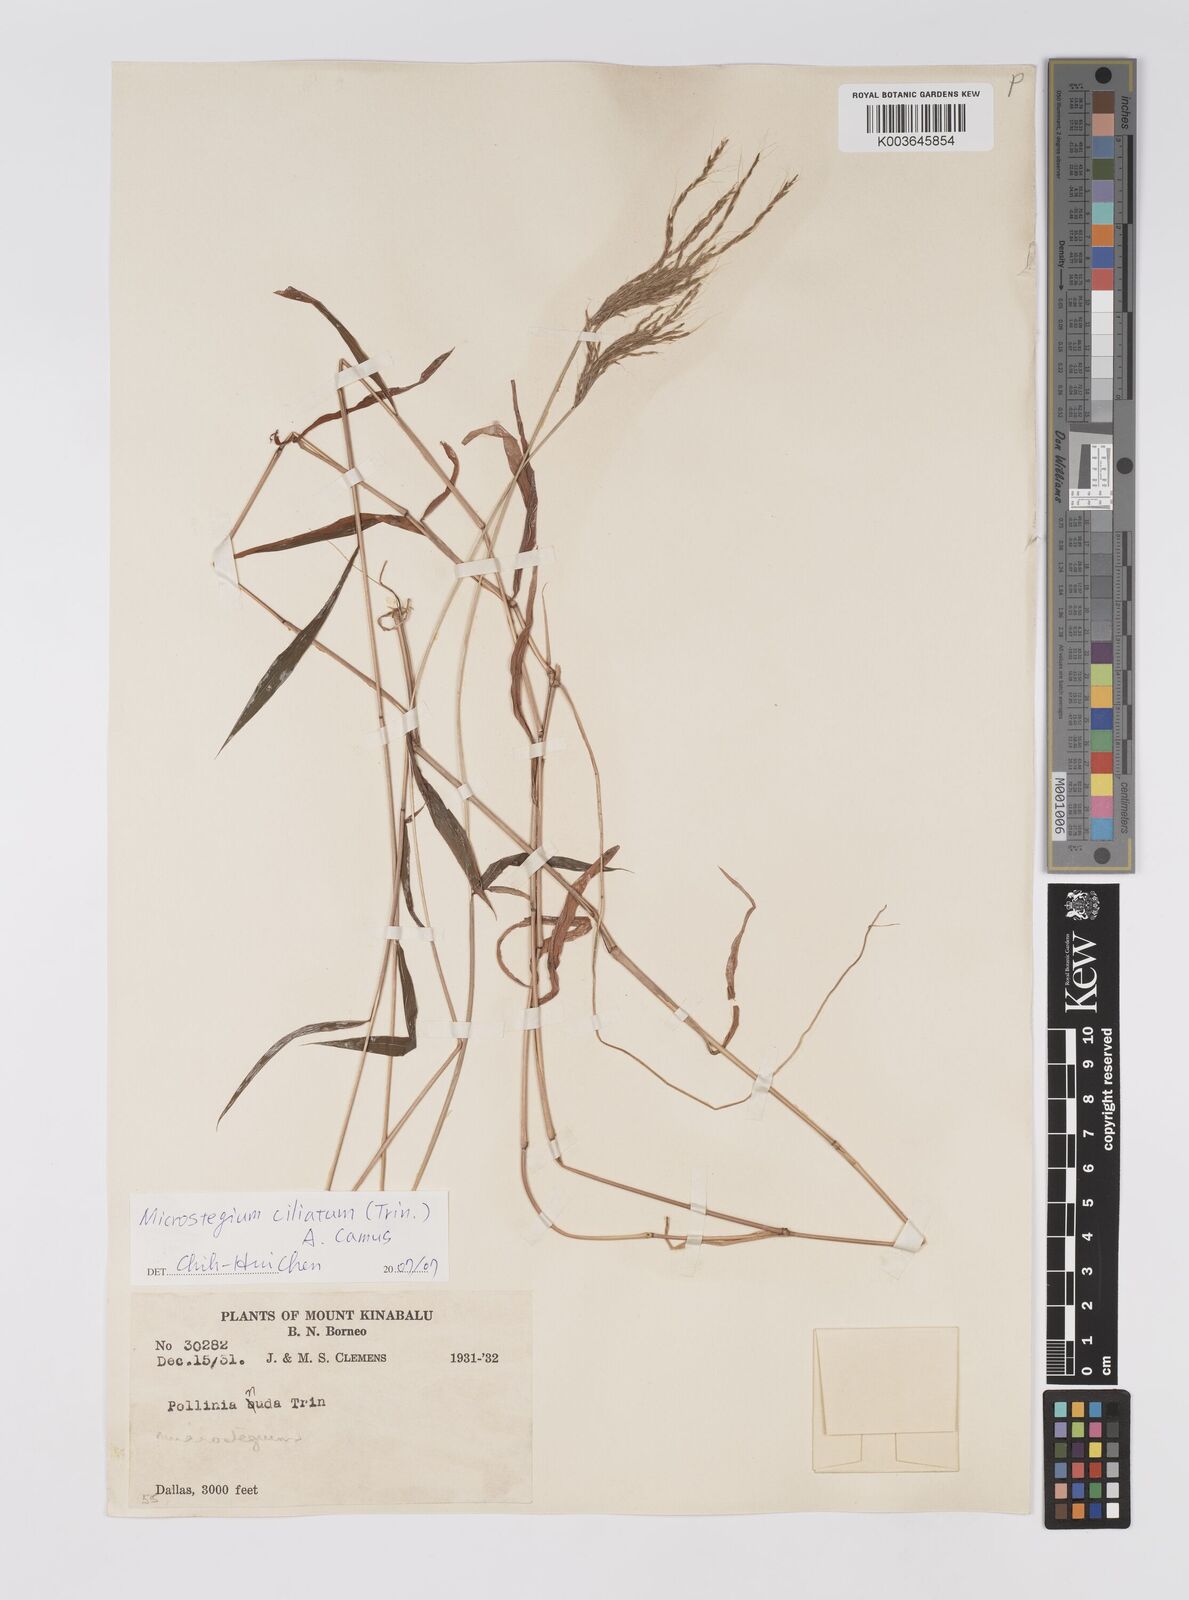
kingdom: Plantae
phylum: Tracheophyta
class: Liliopsida
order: Poales
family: Poaceae
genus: Microstegium
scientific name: Microstegium fasciculatum
